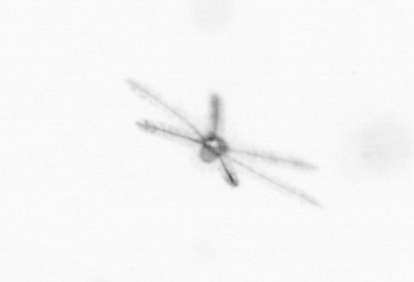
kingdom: Animalia
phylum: Echinodermata
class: Crinoidea
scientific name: Crinoidea
